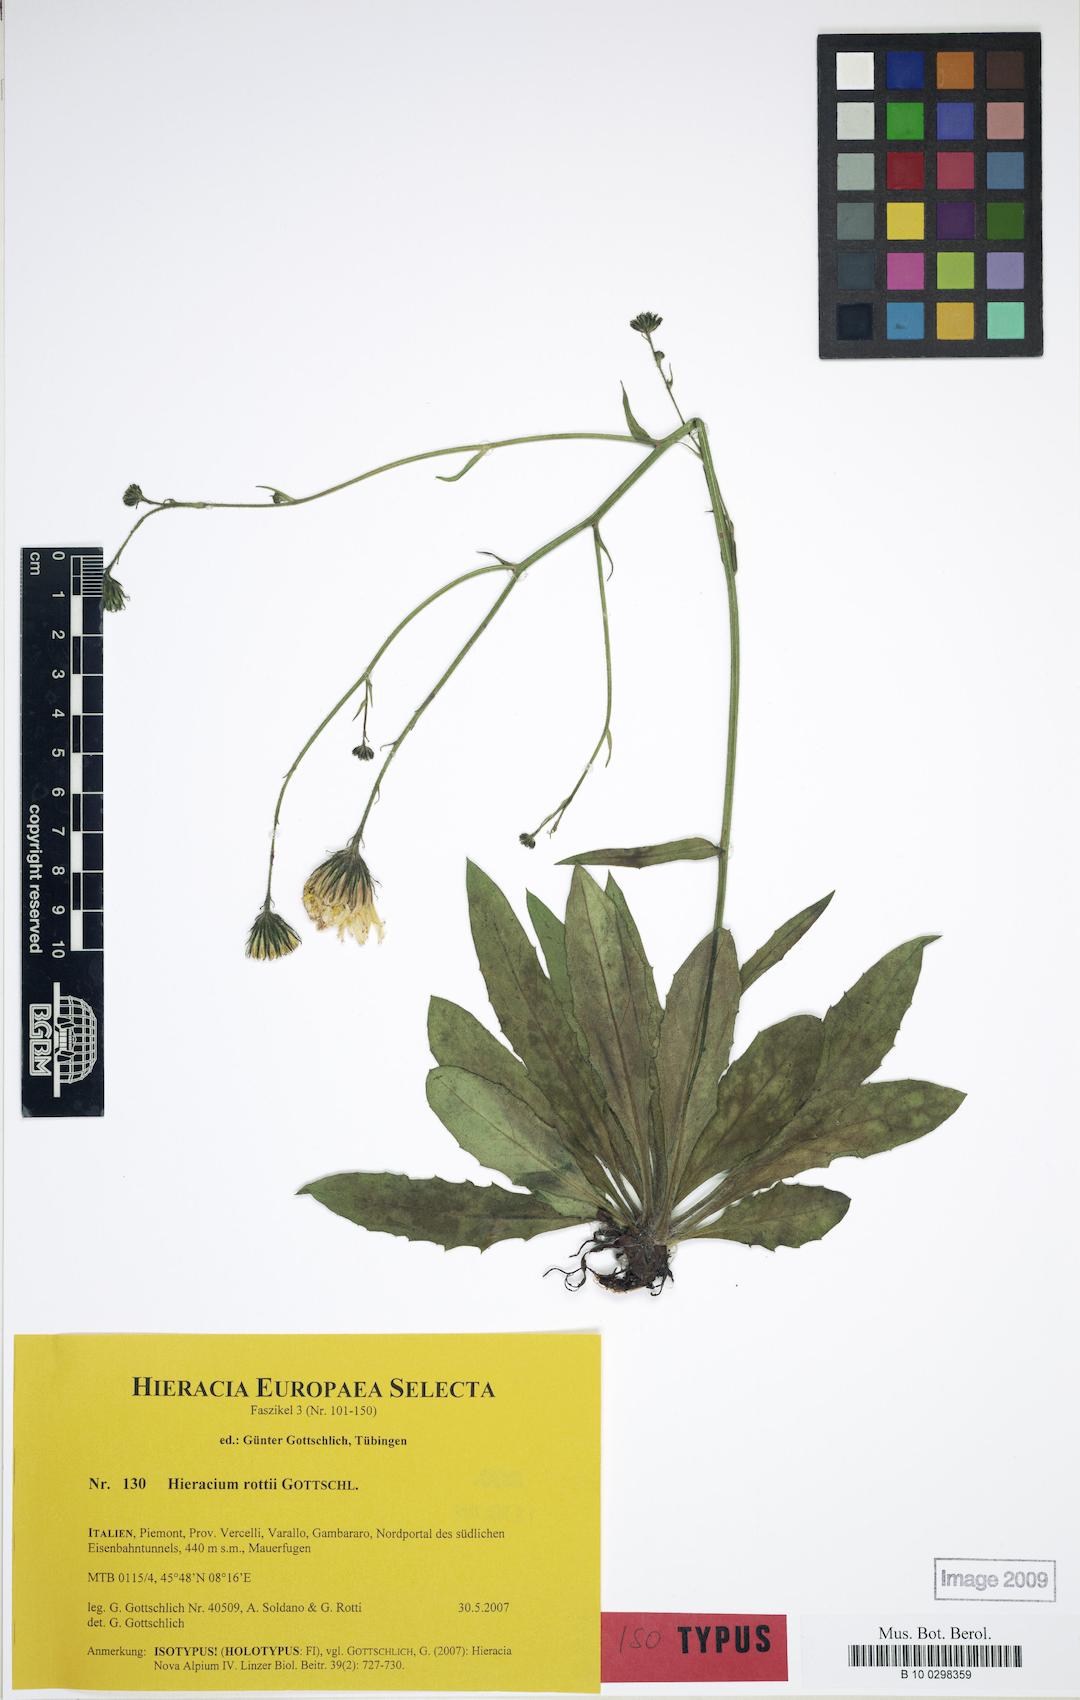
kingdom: Plantae
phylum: Tracheophyta
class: Magnoliopsida
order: Asterales
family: Asteraceae
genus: Hieracium
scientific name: Hieracium rottii
